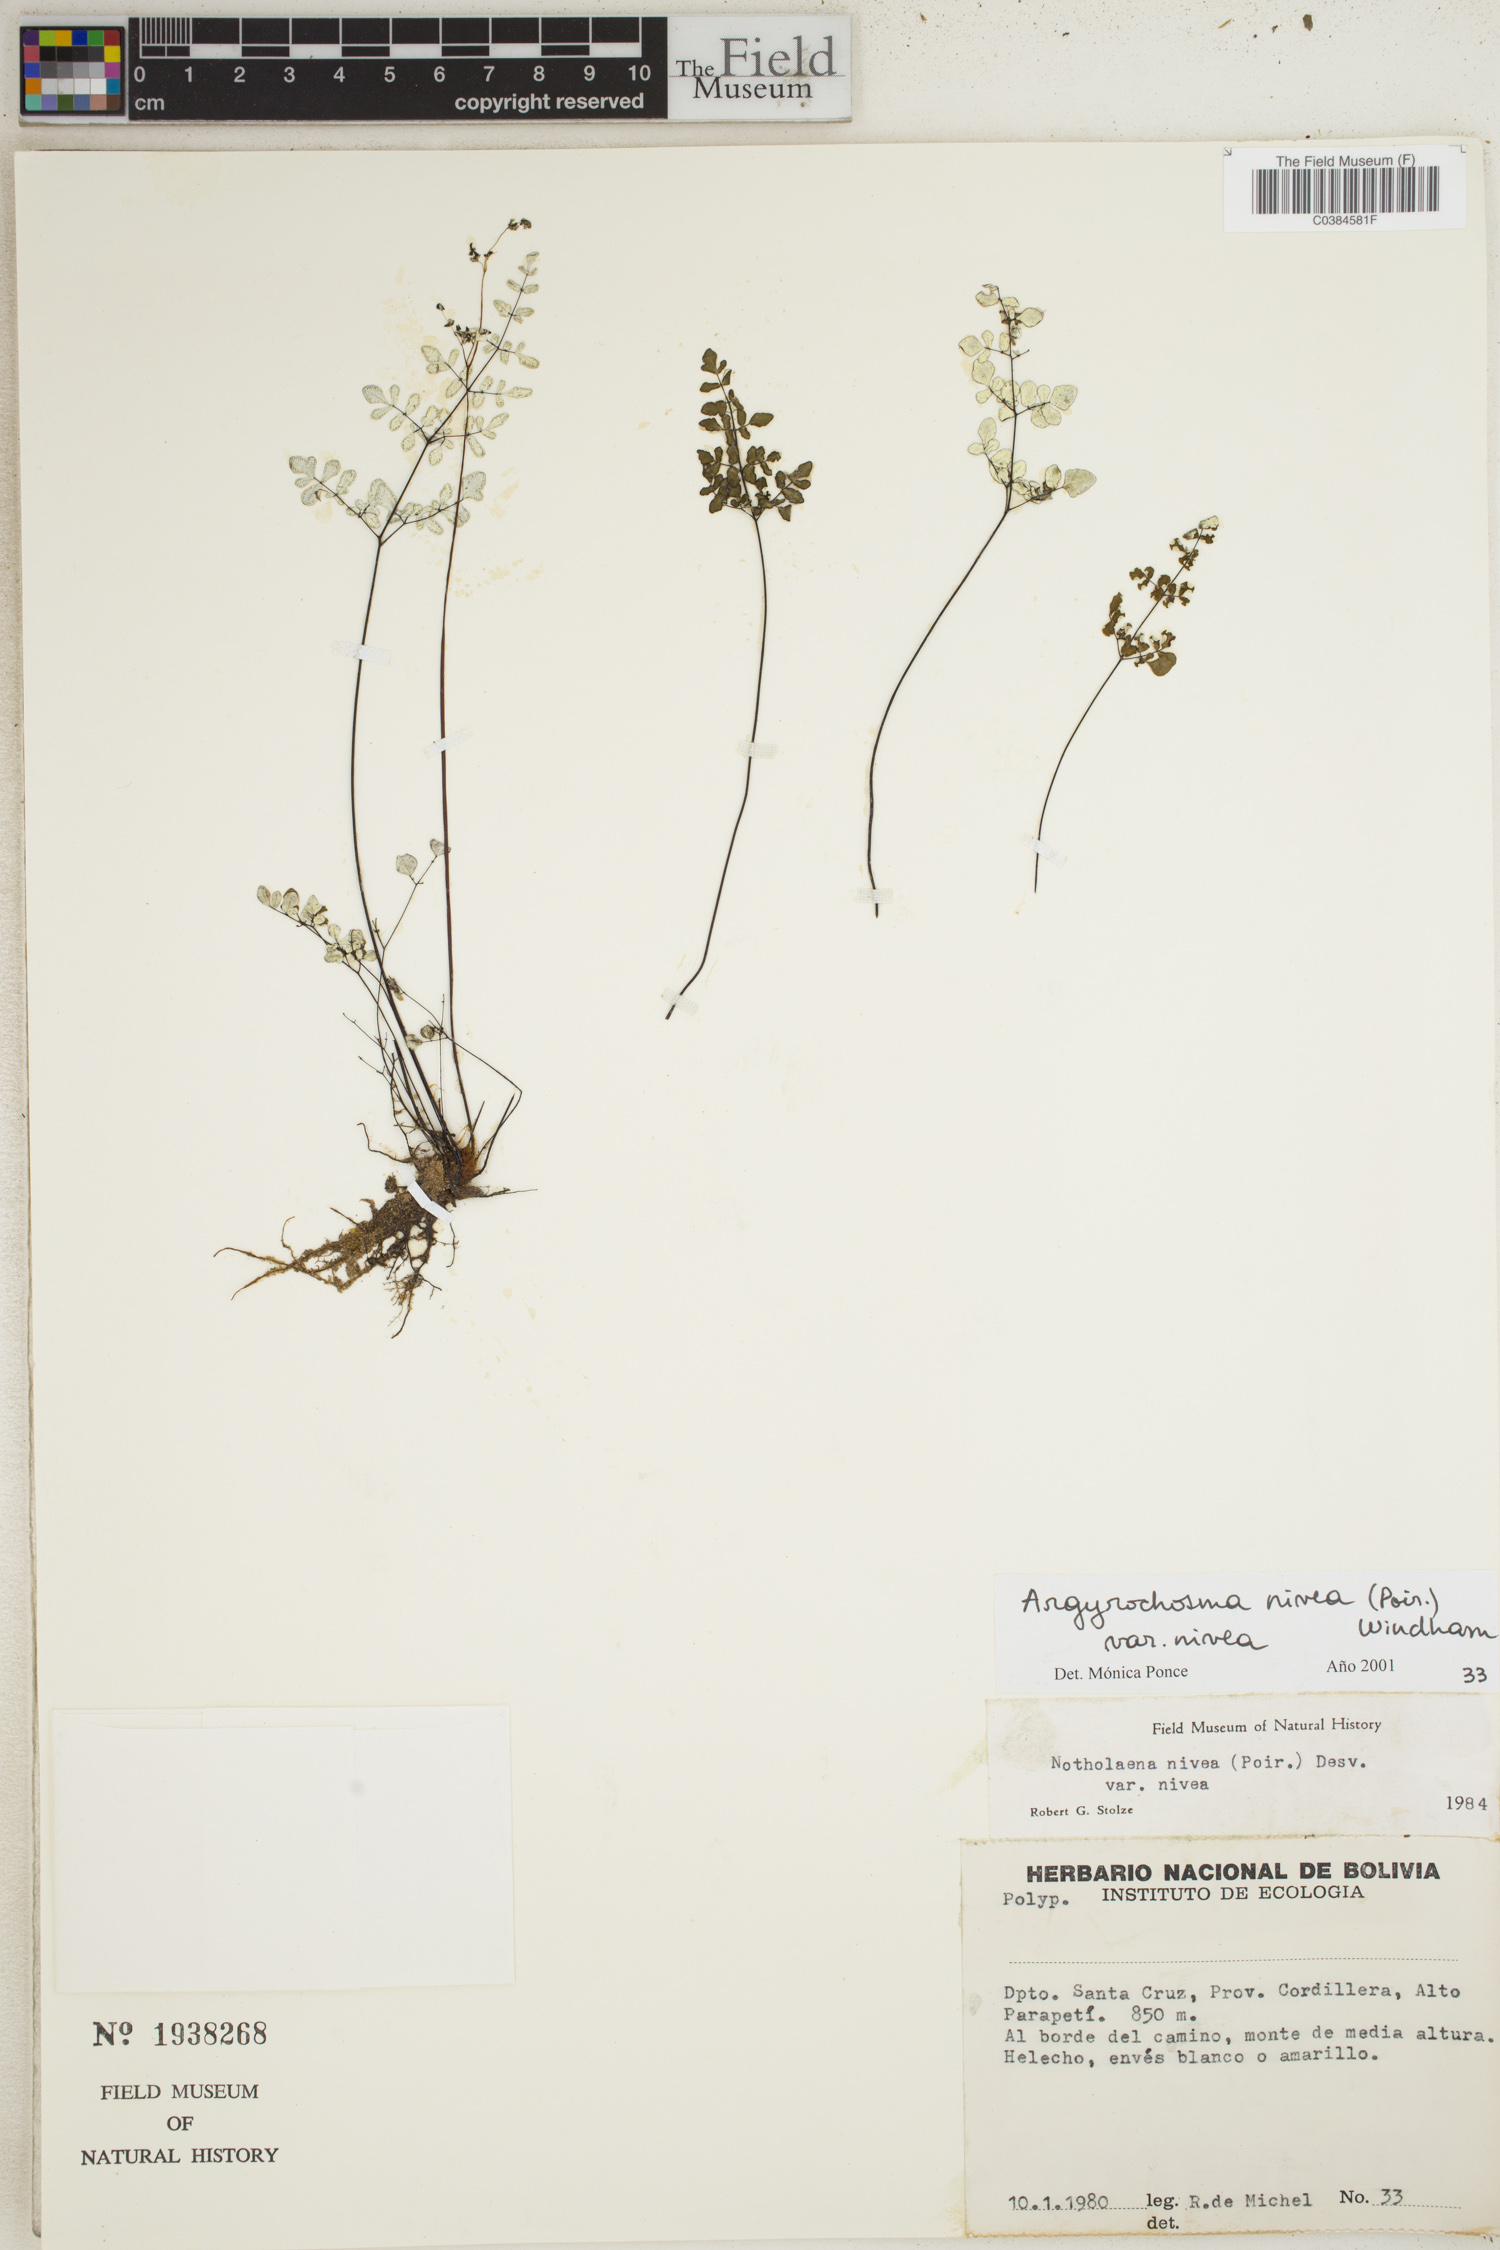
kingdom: Plantae
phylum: Tracheophyta
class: Polypodiopsida
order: Polypodiales
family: Pteridaceae
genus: Argyrochosma
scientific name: Argyrochosma nivea
